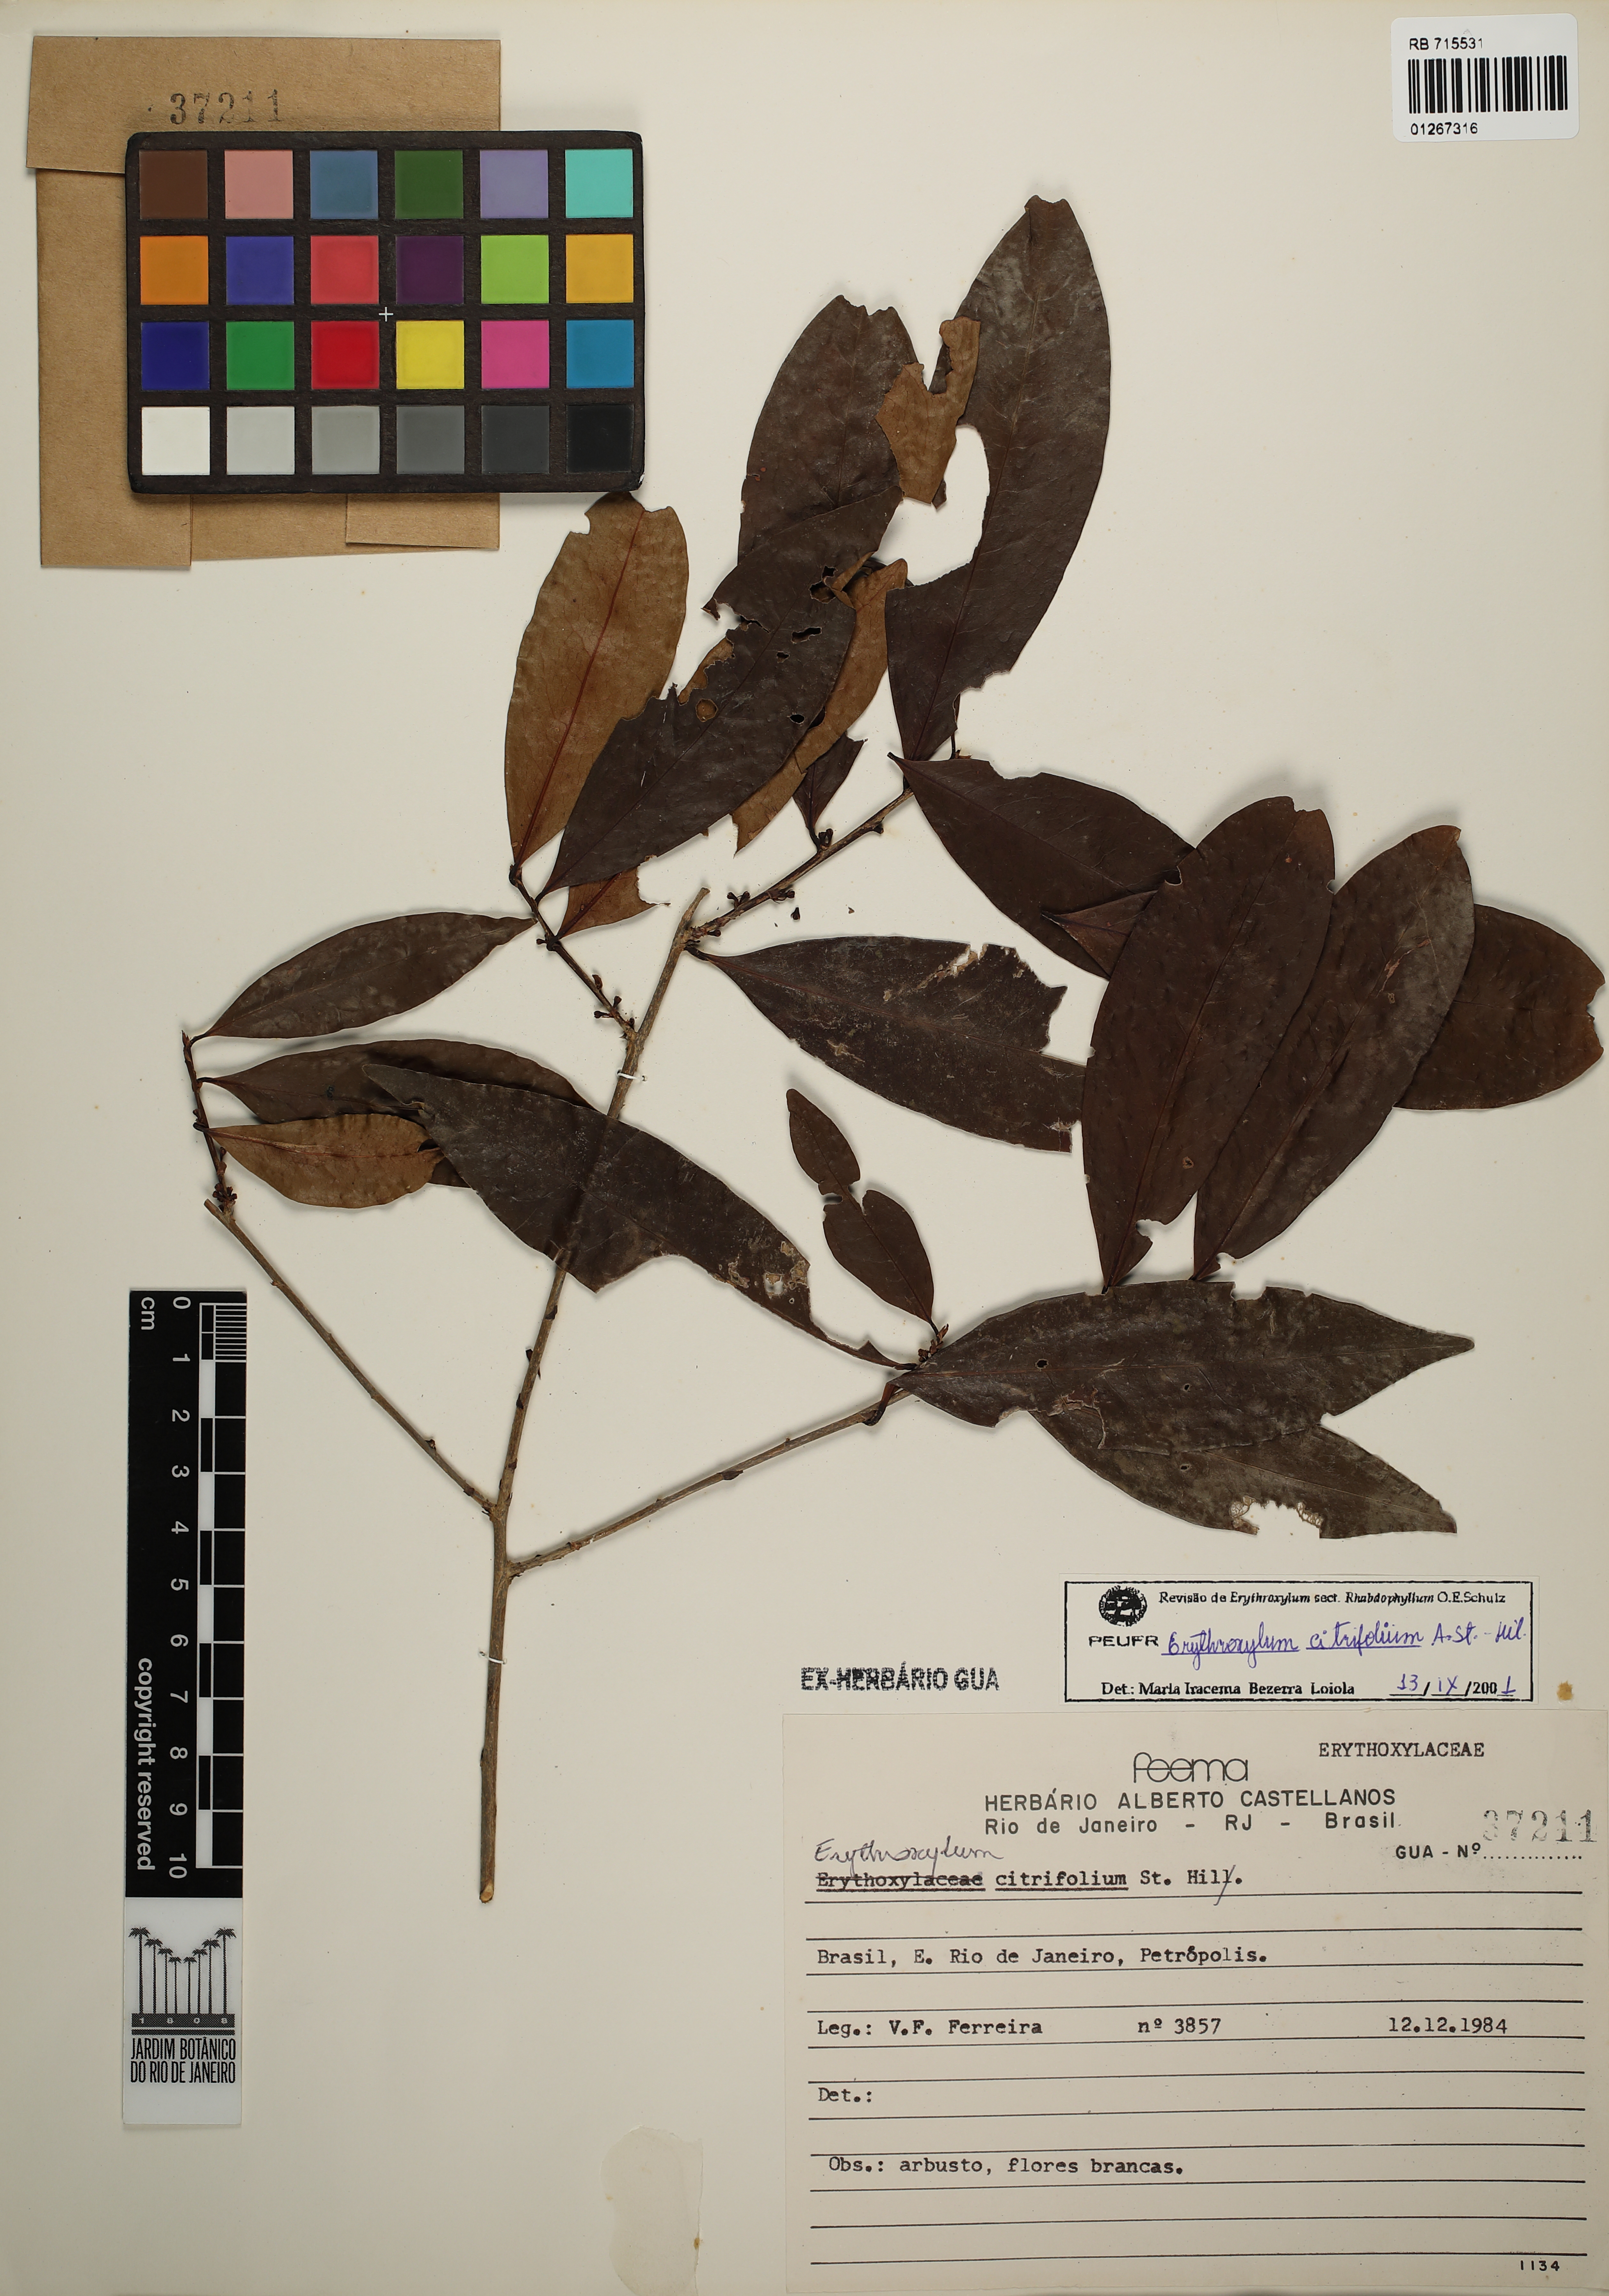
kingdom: Plantae
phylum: Tracheophyta
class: Magnoliopsida
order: Malpighiales
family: Erythroxylaceae
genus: Erythroxylum
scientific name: Erythroxylum citrifolium
